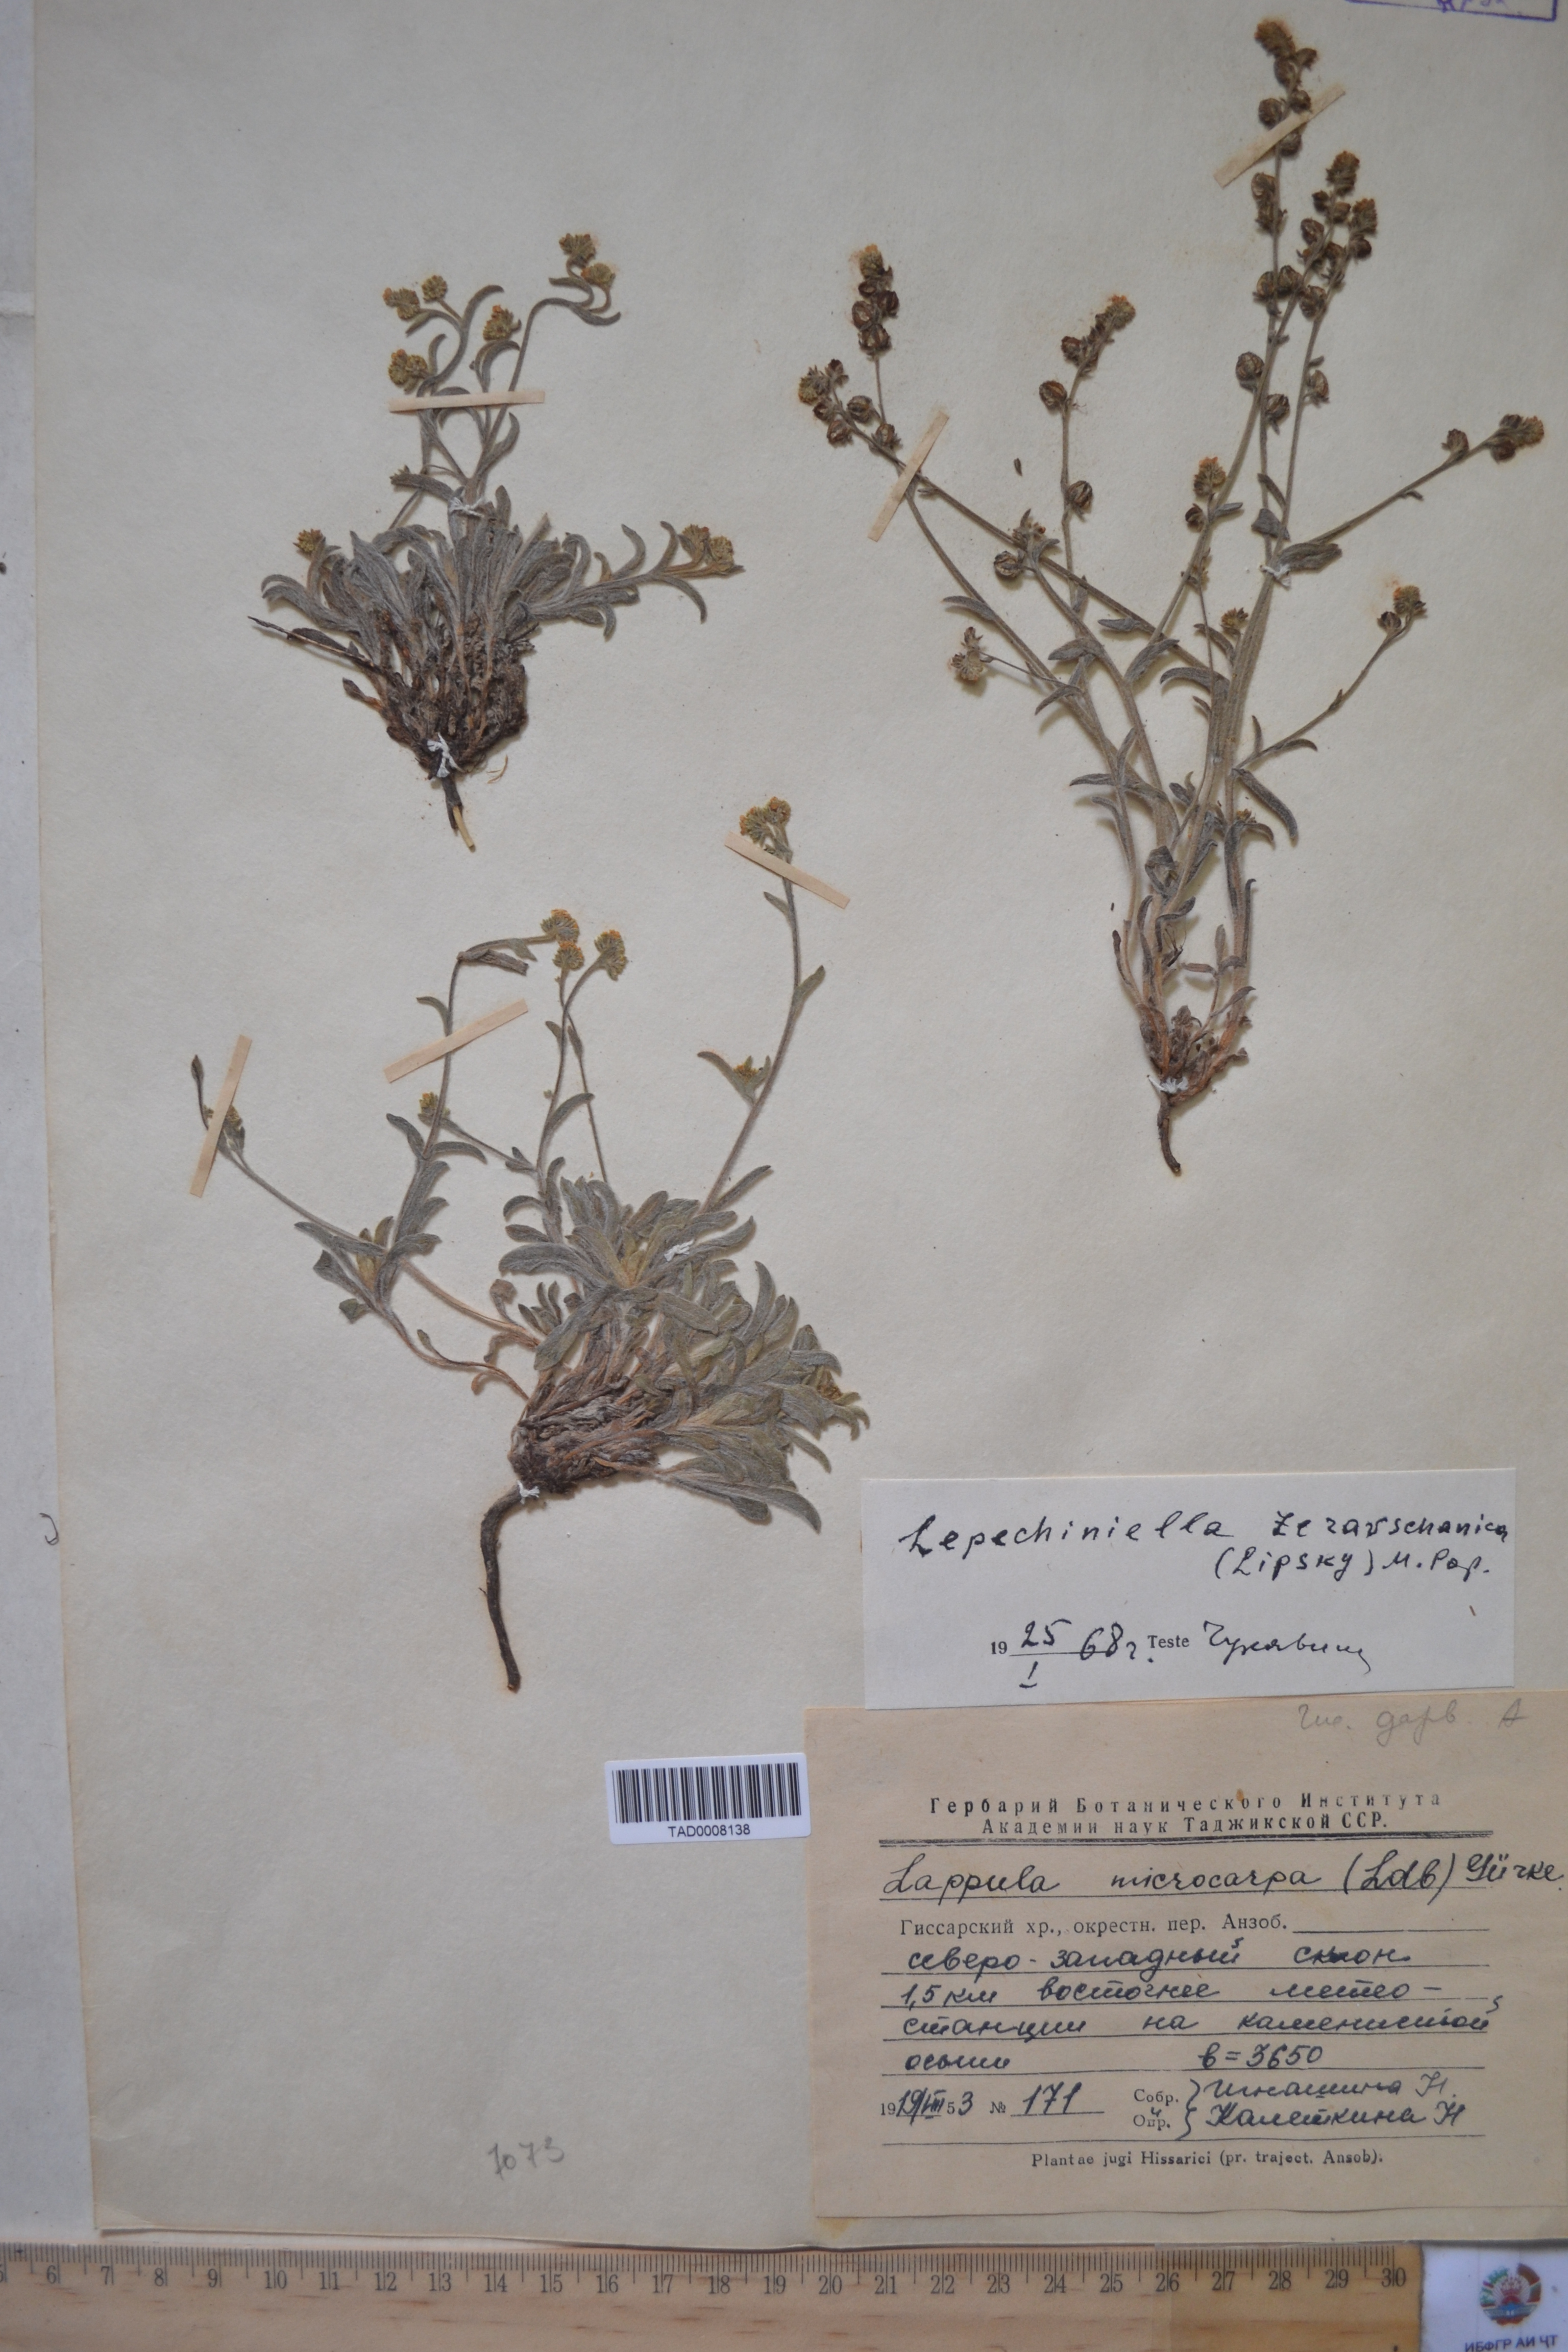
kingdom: Plantae
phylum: Tracheophyta
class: Magnoliopsida
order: Boraginales
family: Boraginaceae
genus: Lappula
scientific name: Lappula microcarpa
